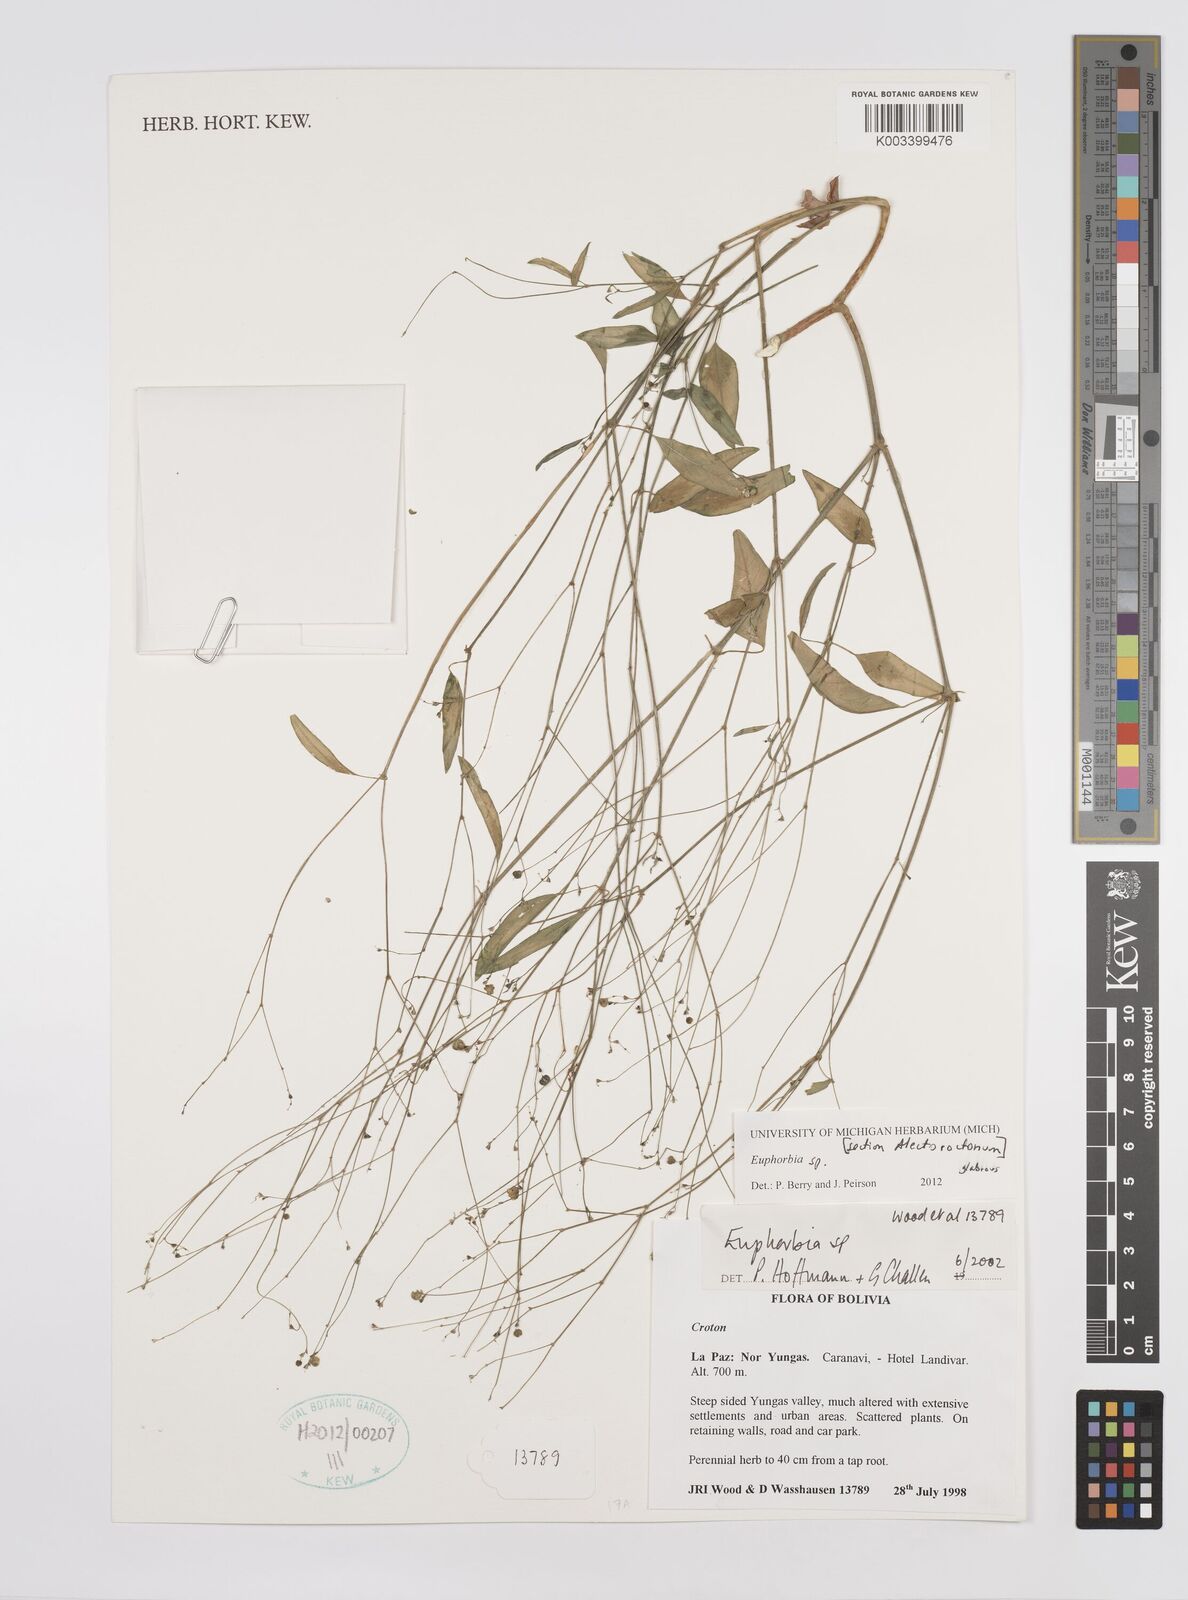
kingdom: Plantae
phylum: Tracheophyta
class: Magnoliopsida
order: Malpighiales
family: Euphorbiaceae
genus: Euphorbia
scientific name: Euphorbia
